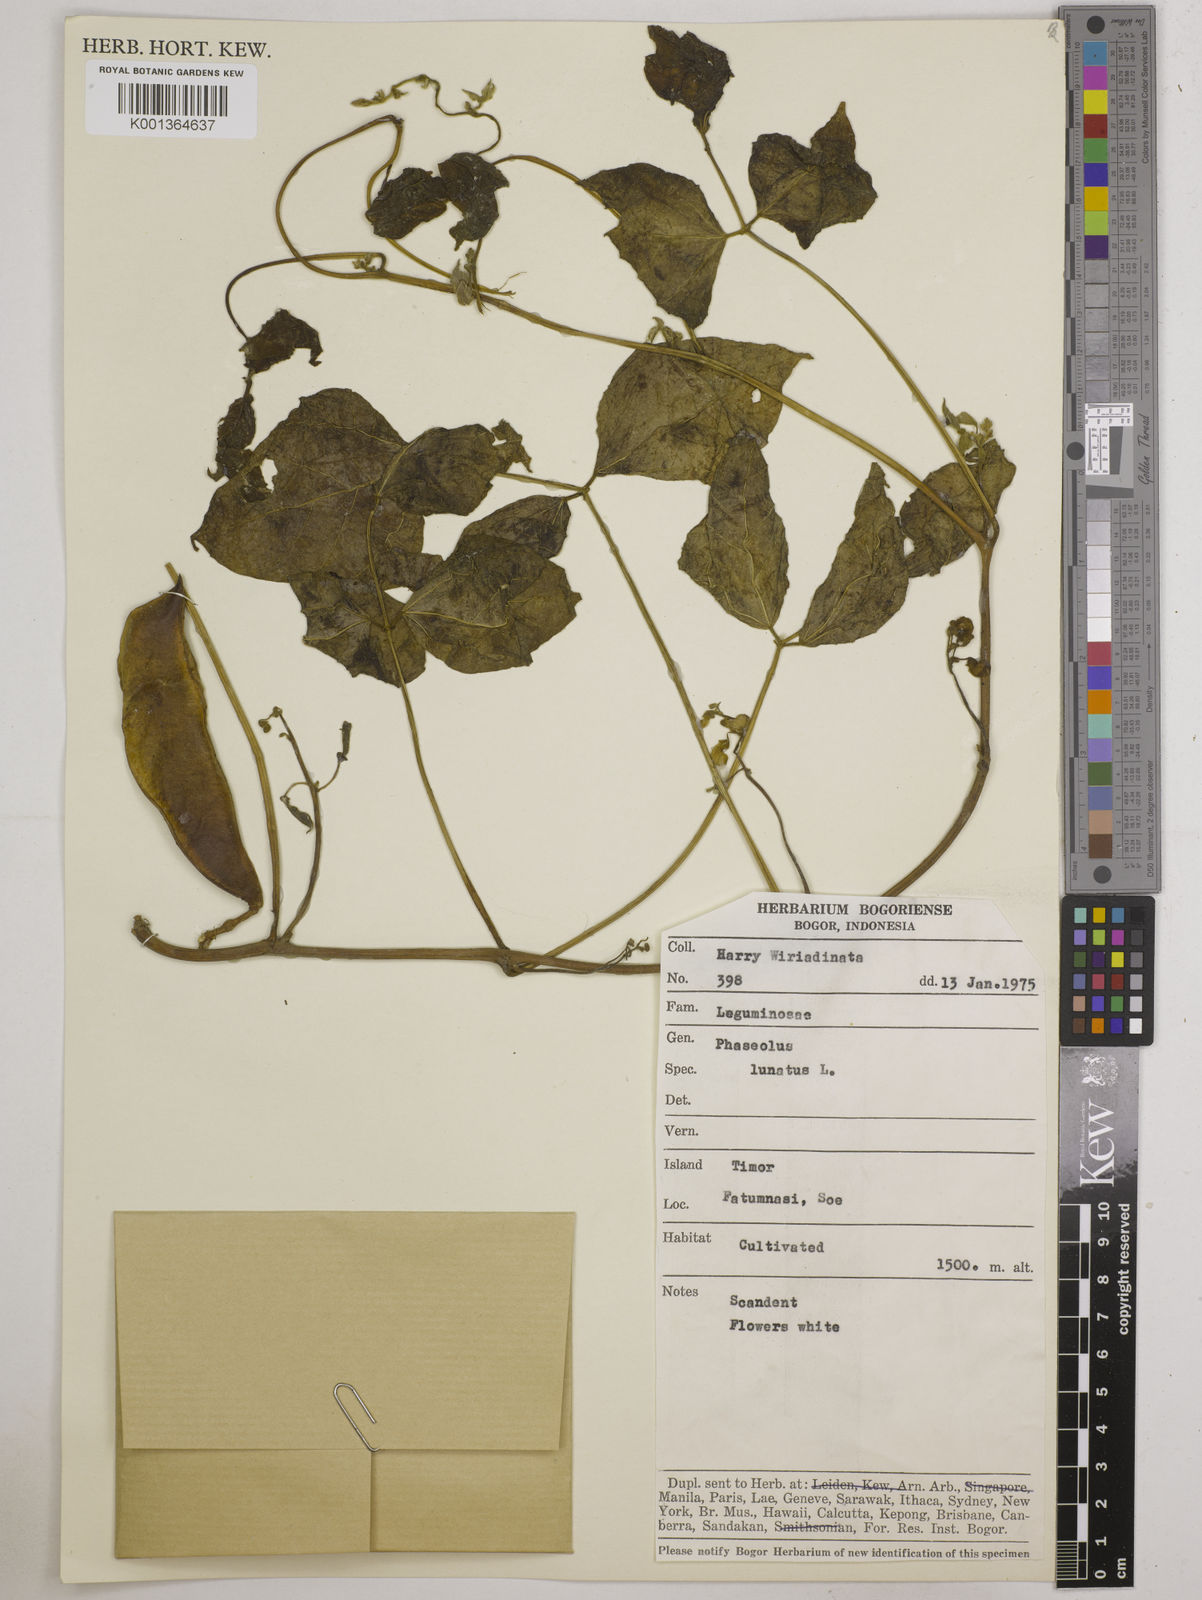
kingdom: Plantae
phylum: Tracheophyta
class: Magnoliopsida
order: Fabales
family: Fabaceae
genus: Phaseolus
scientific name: Phaseolus lunatus
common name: Sieva bean
